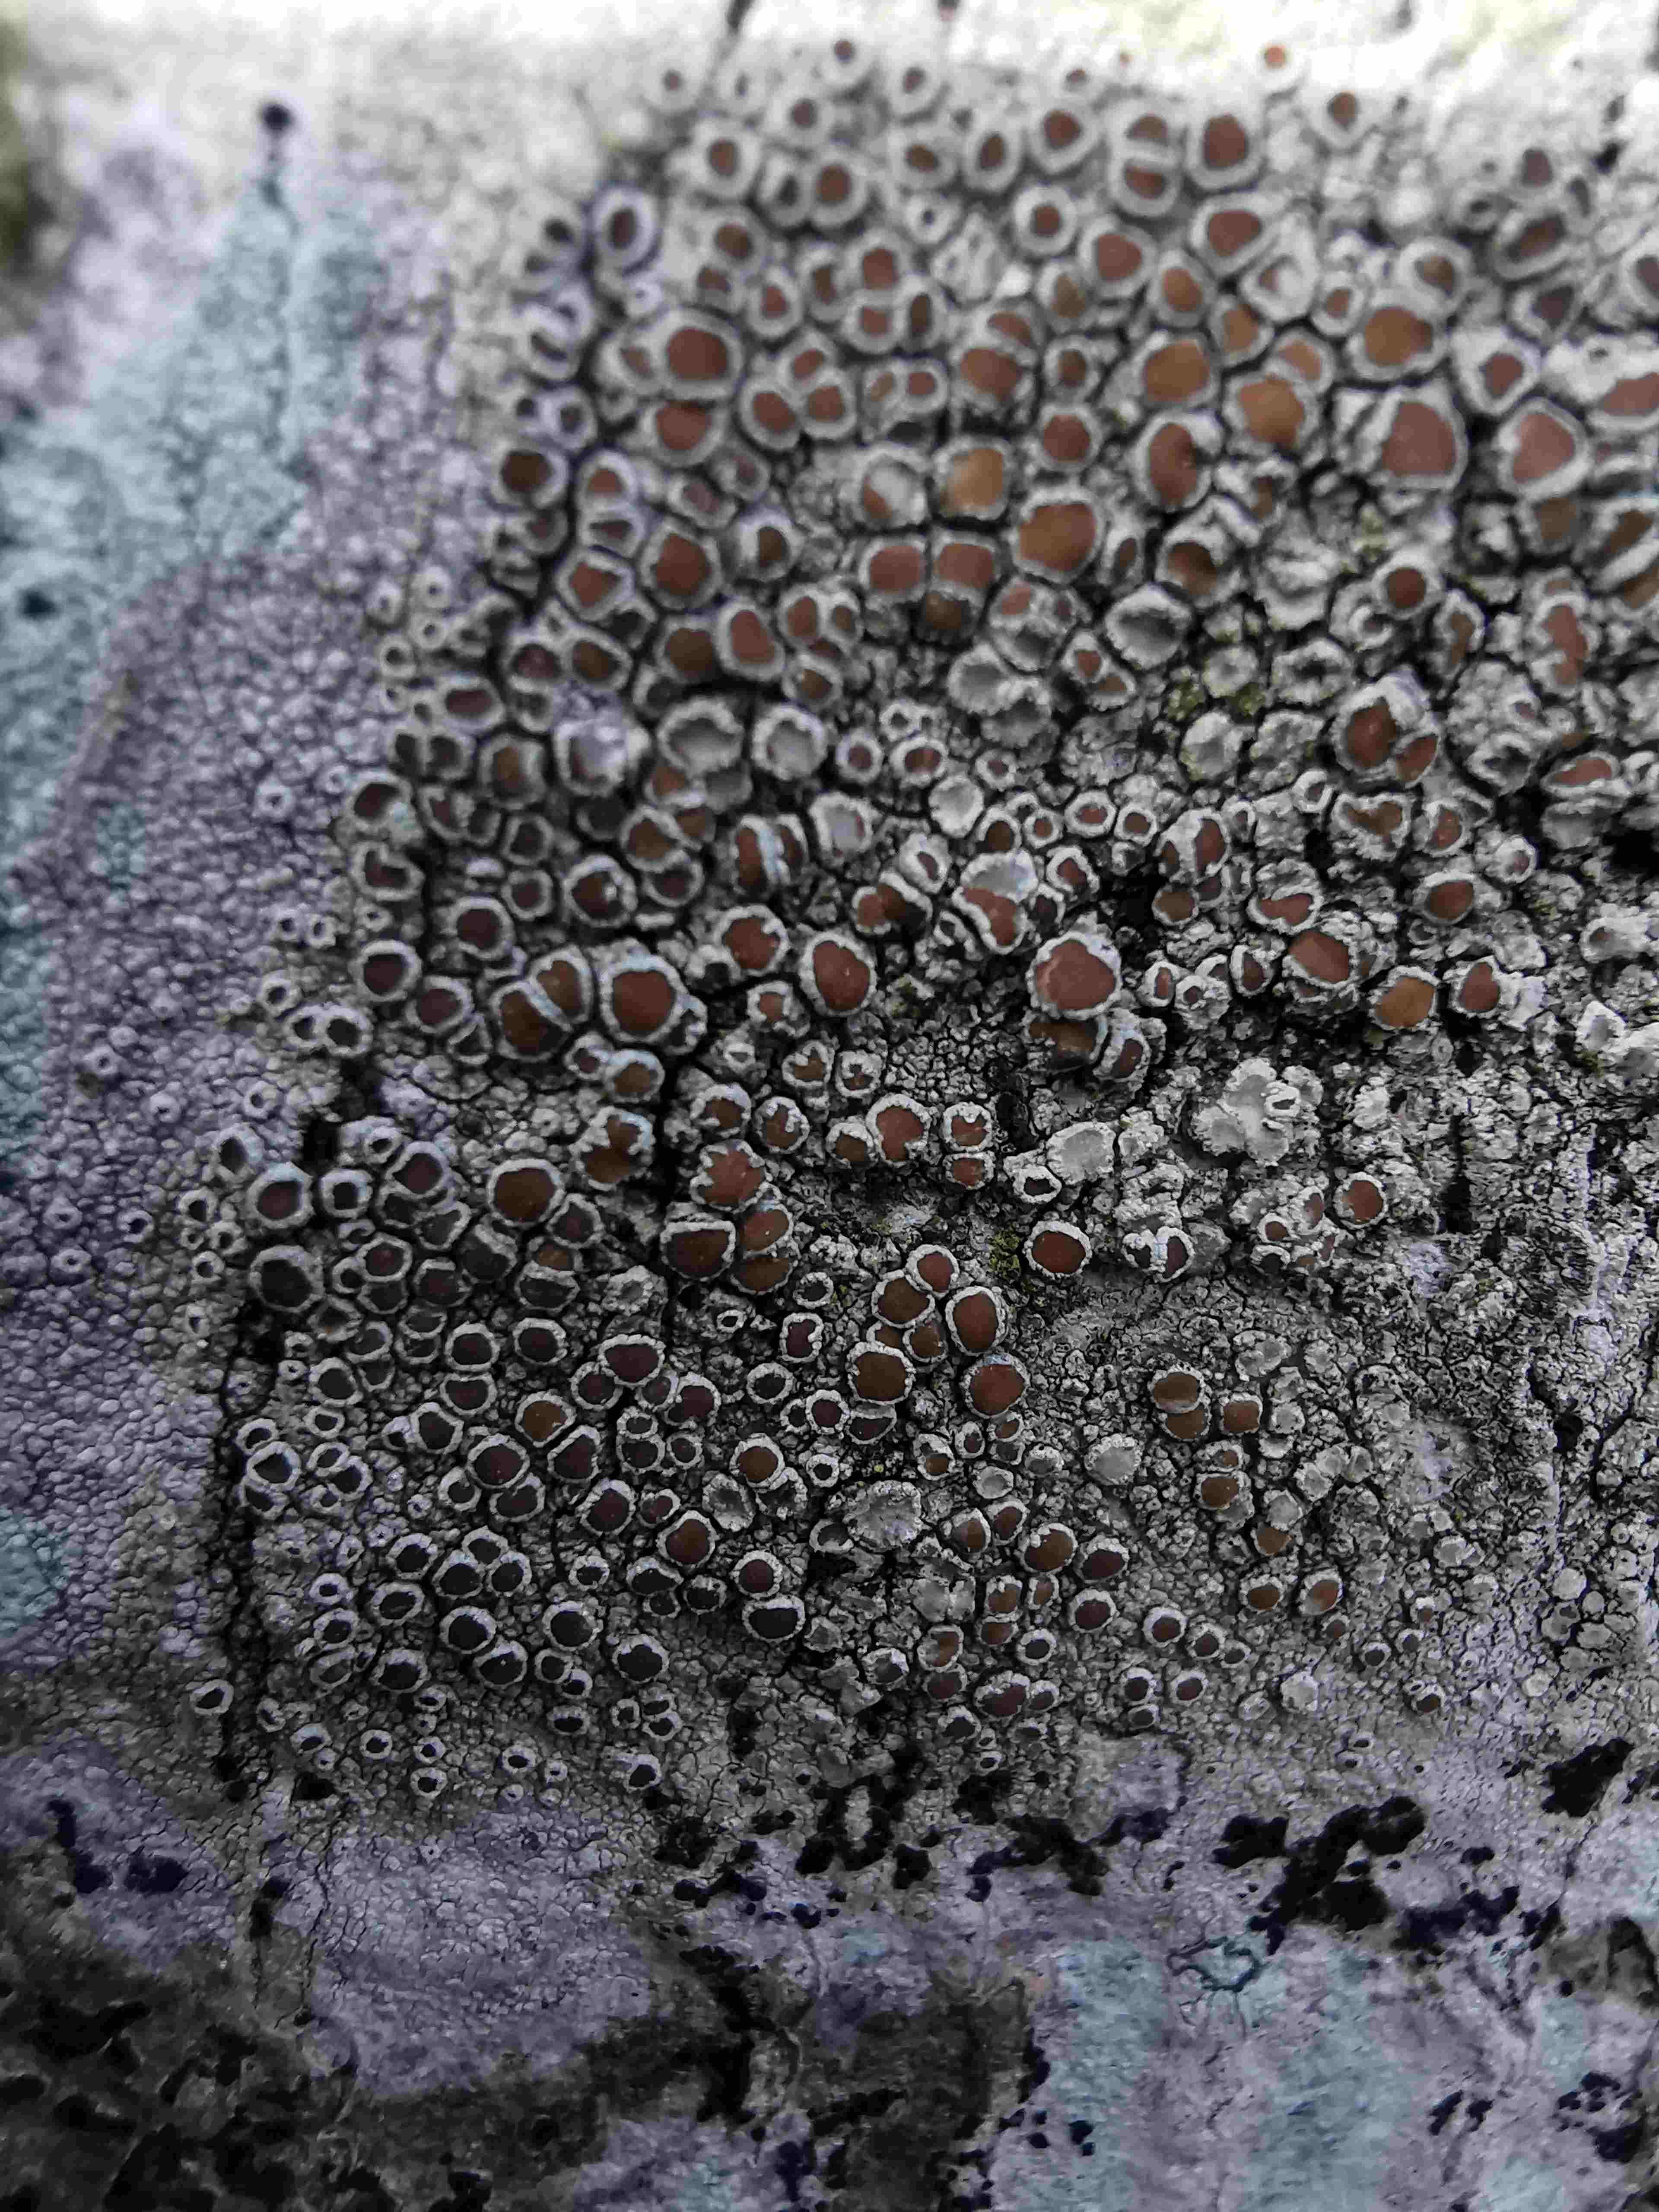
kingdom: Fungi
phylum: Ascomycota
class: Lecanoromycetes
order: Lecanorales
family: Lecanoraceae
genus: Lecanora
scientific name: Lecanora chlarotera
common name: brun kantskivelav
